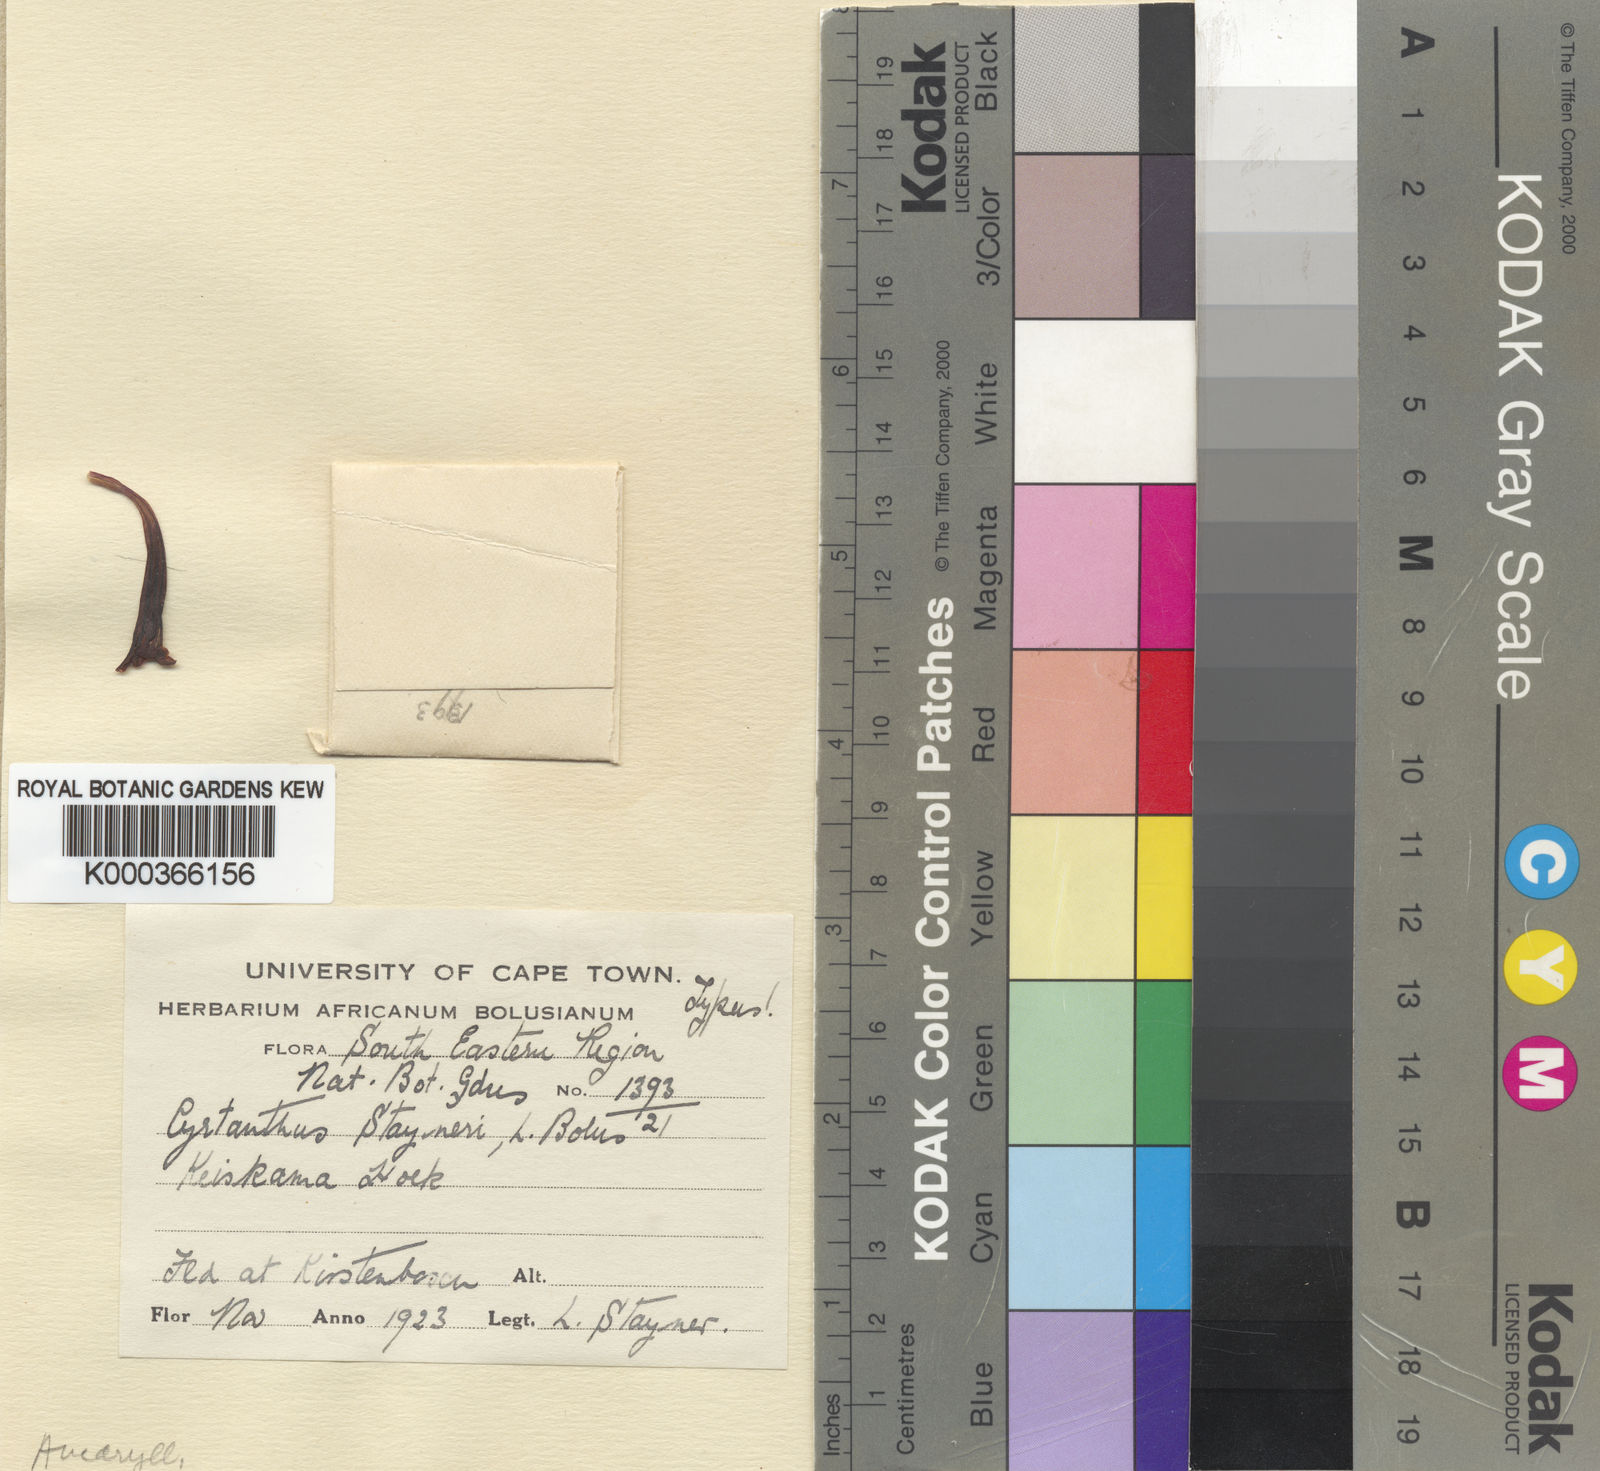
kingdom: Plantae
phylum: Tracheophyta
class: Liliopsida
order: Asparagales
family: Amaryllidaceae
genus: Cyrtanthus
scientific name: Cyrtanthus
